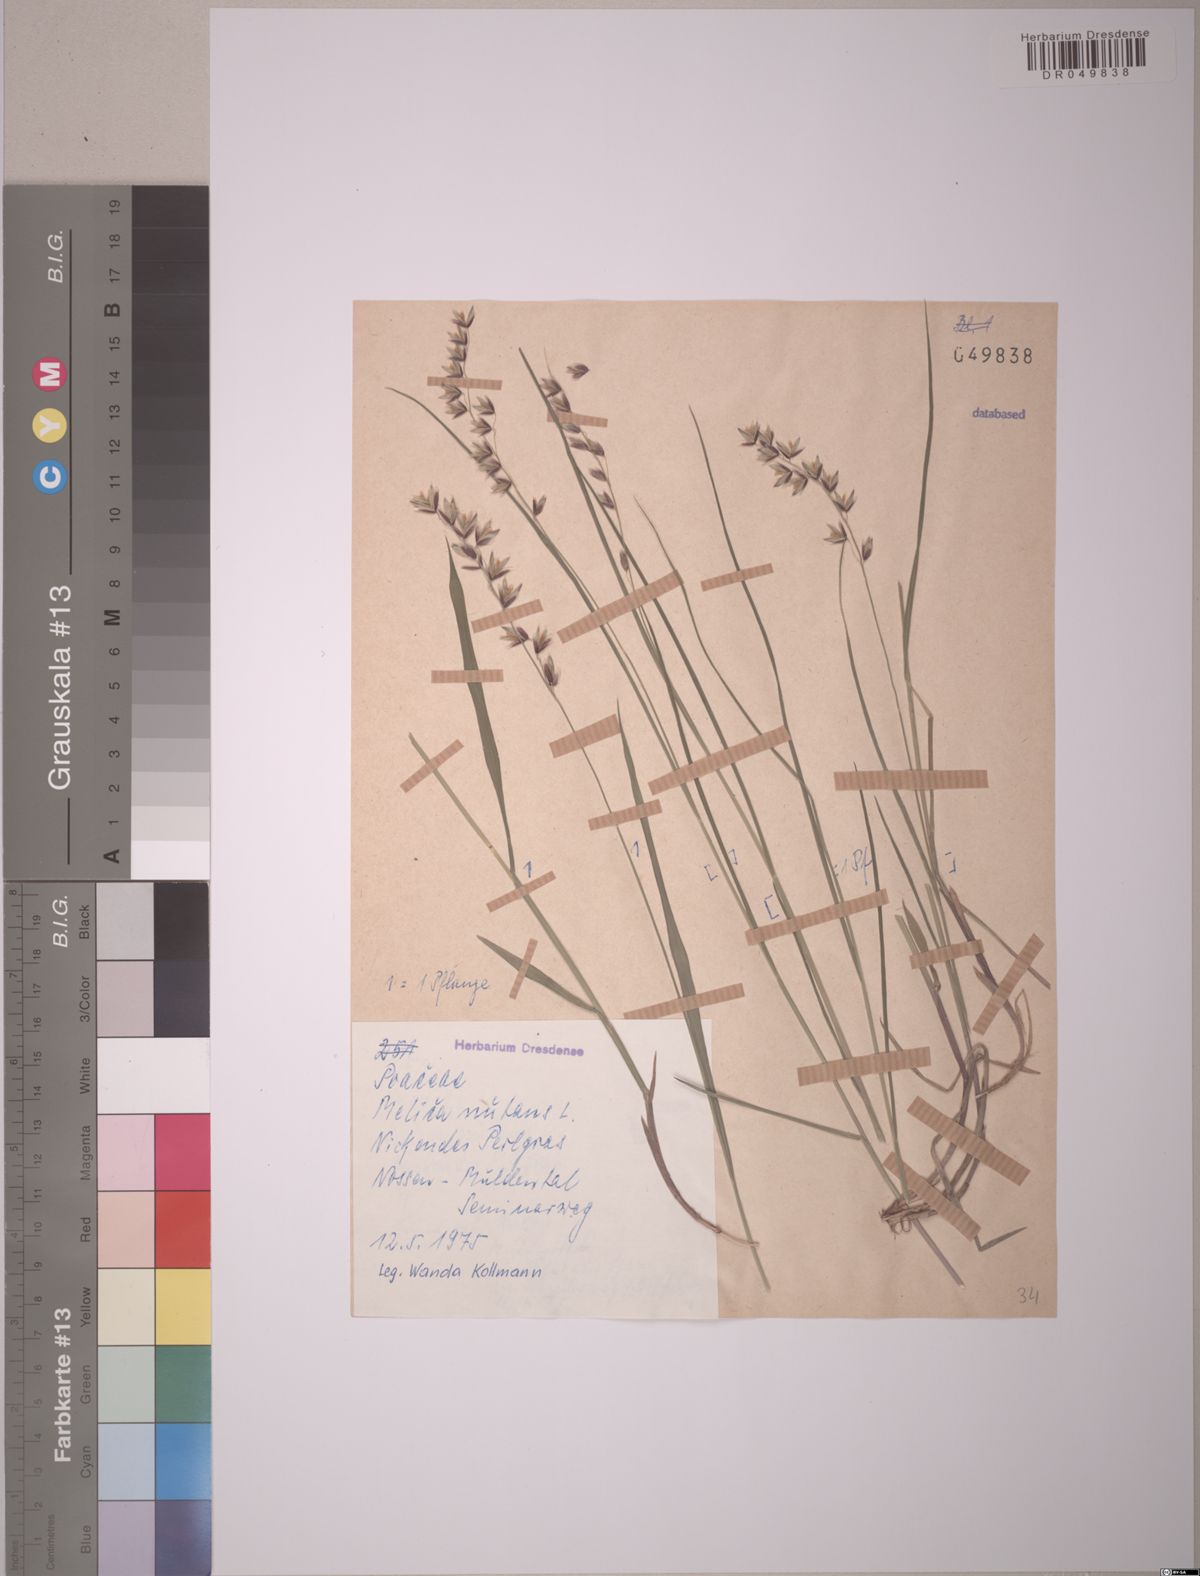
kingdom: Plantae
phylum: Tracheophyta
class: Liliopsida
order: Poales
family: Poaceae
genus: Melica
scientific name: Melica nutans
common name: Mountain melick
